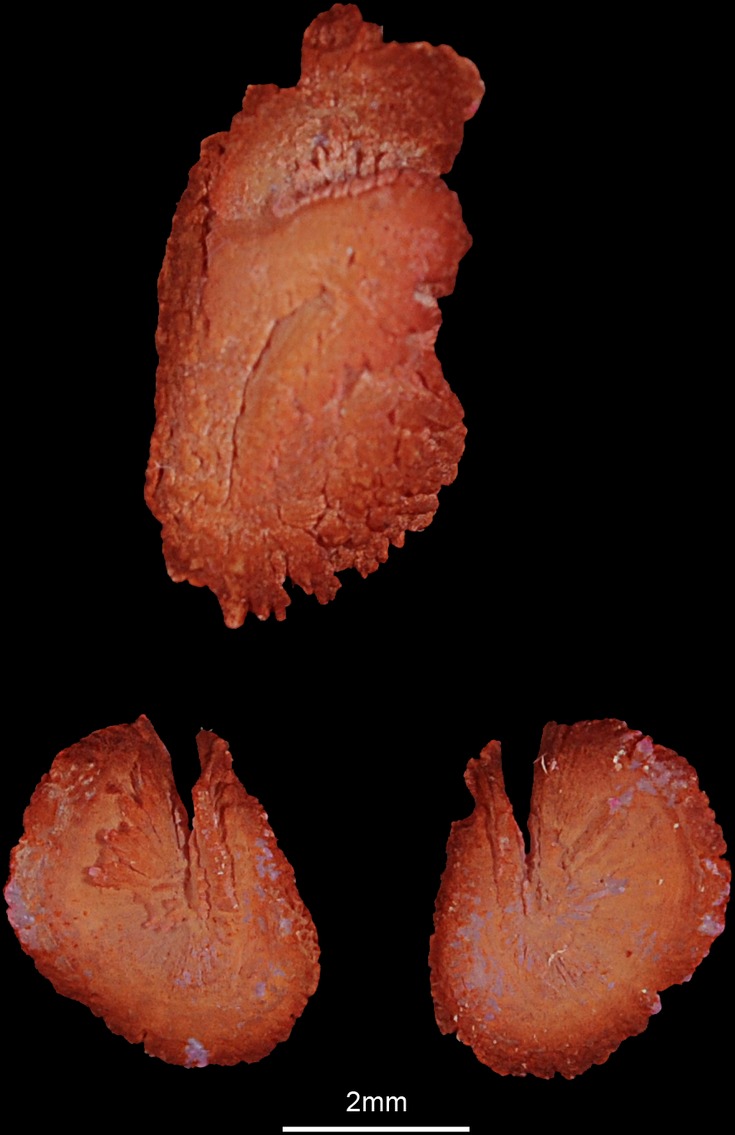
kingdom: Animalia
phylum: Chordata
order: Siluriformes
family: Clariidae
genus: Heterobranchus
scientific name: Heterobranchus longifilis
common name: Catfish
